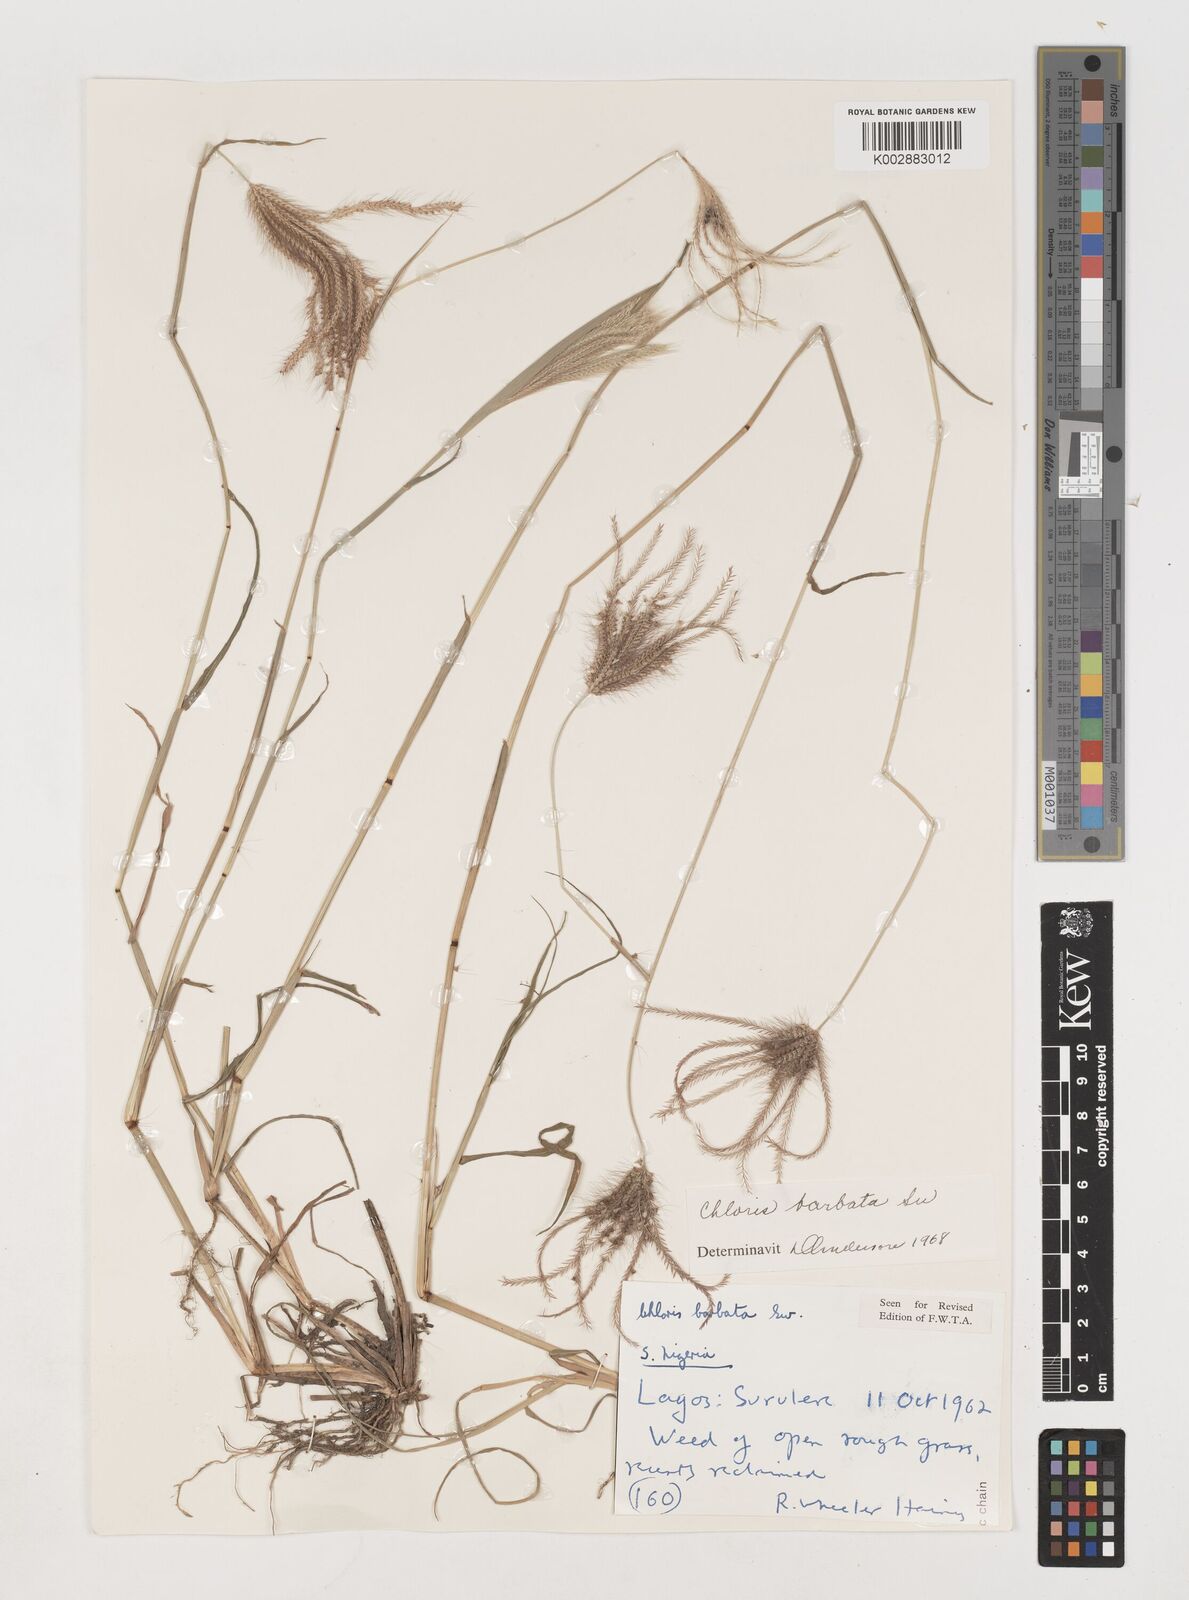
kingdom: Plantae
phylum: Tracheophyta
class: Liliopsida
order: Poales
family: Poaceae
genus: Chloris
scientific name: Chloris barbata
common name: Swollen fingergrass
